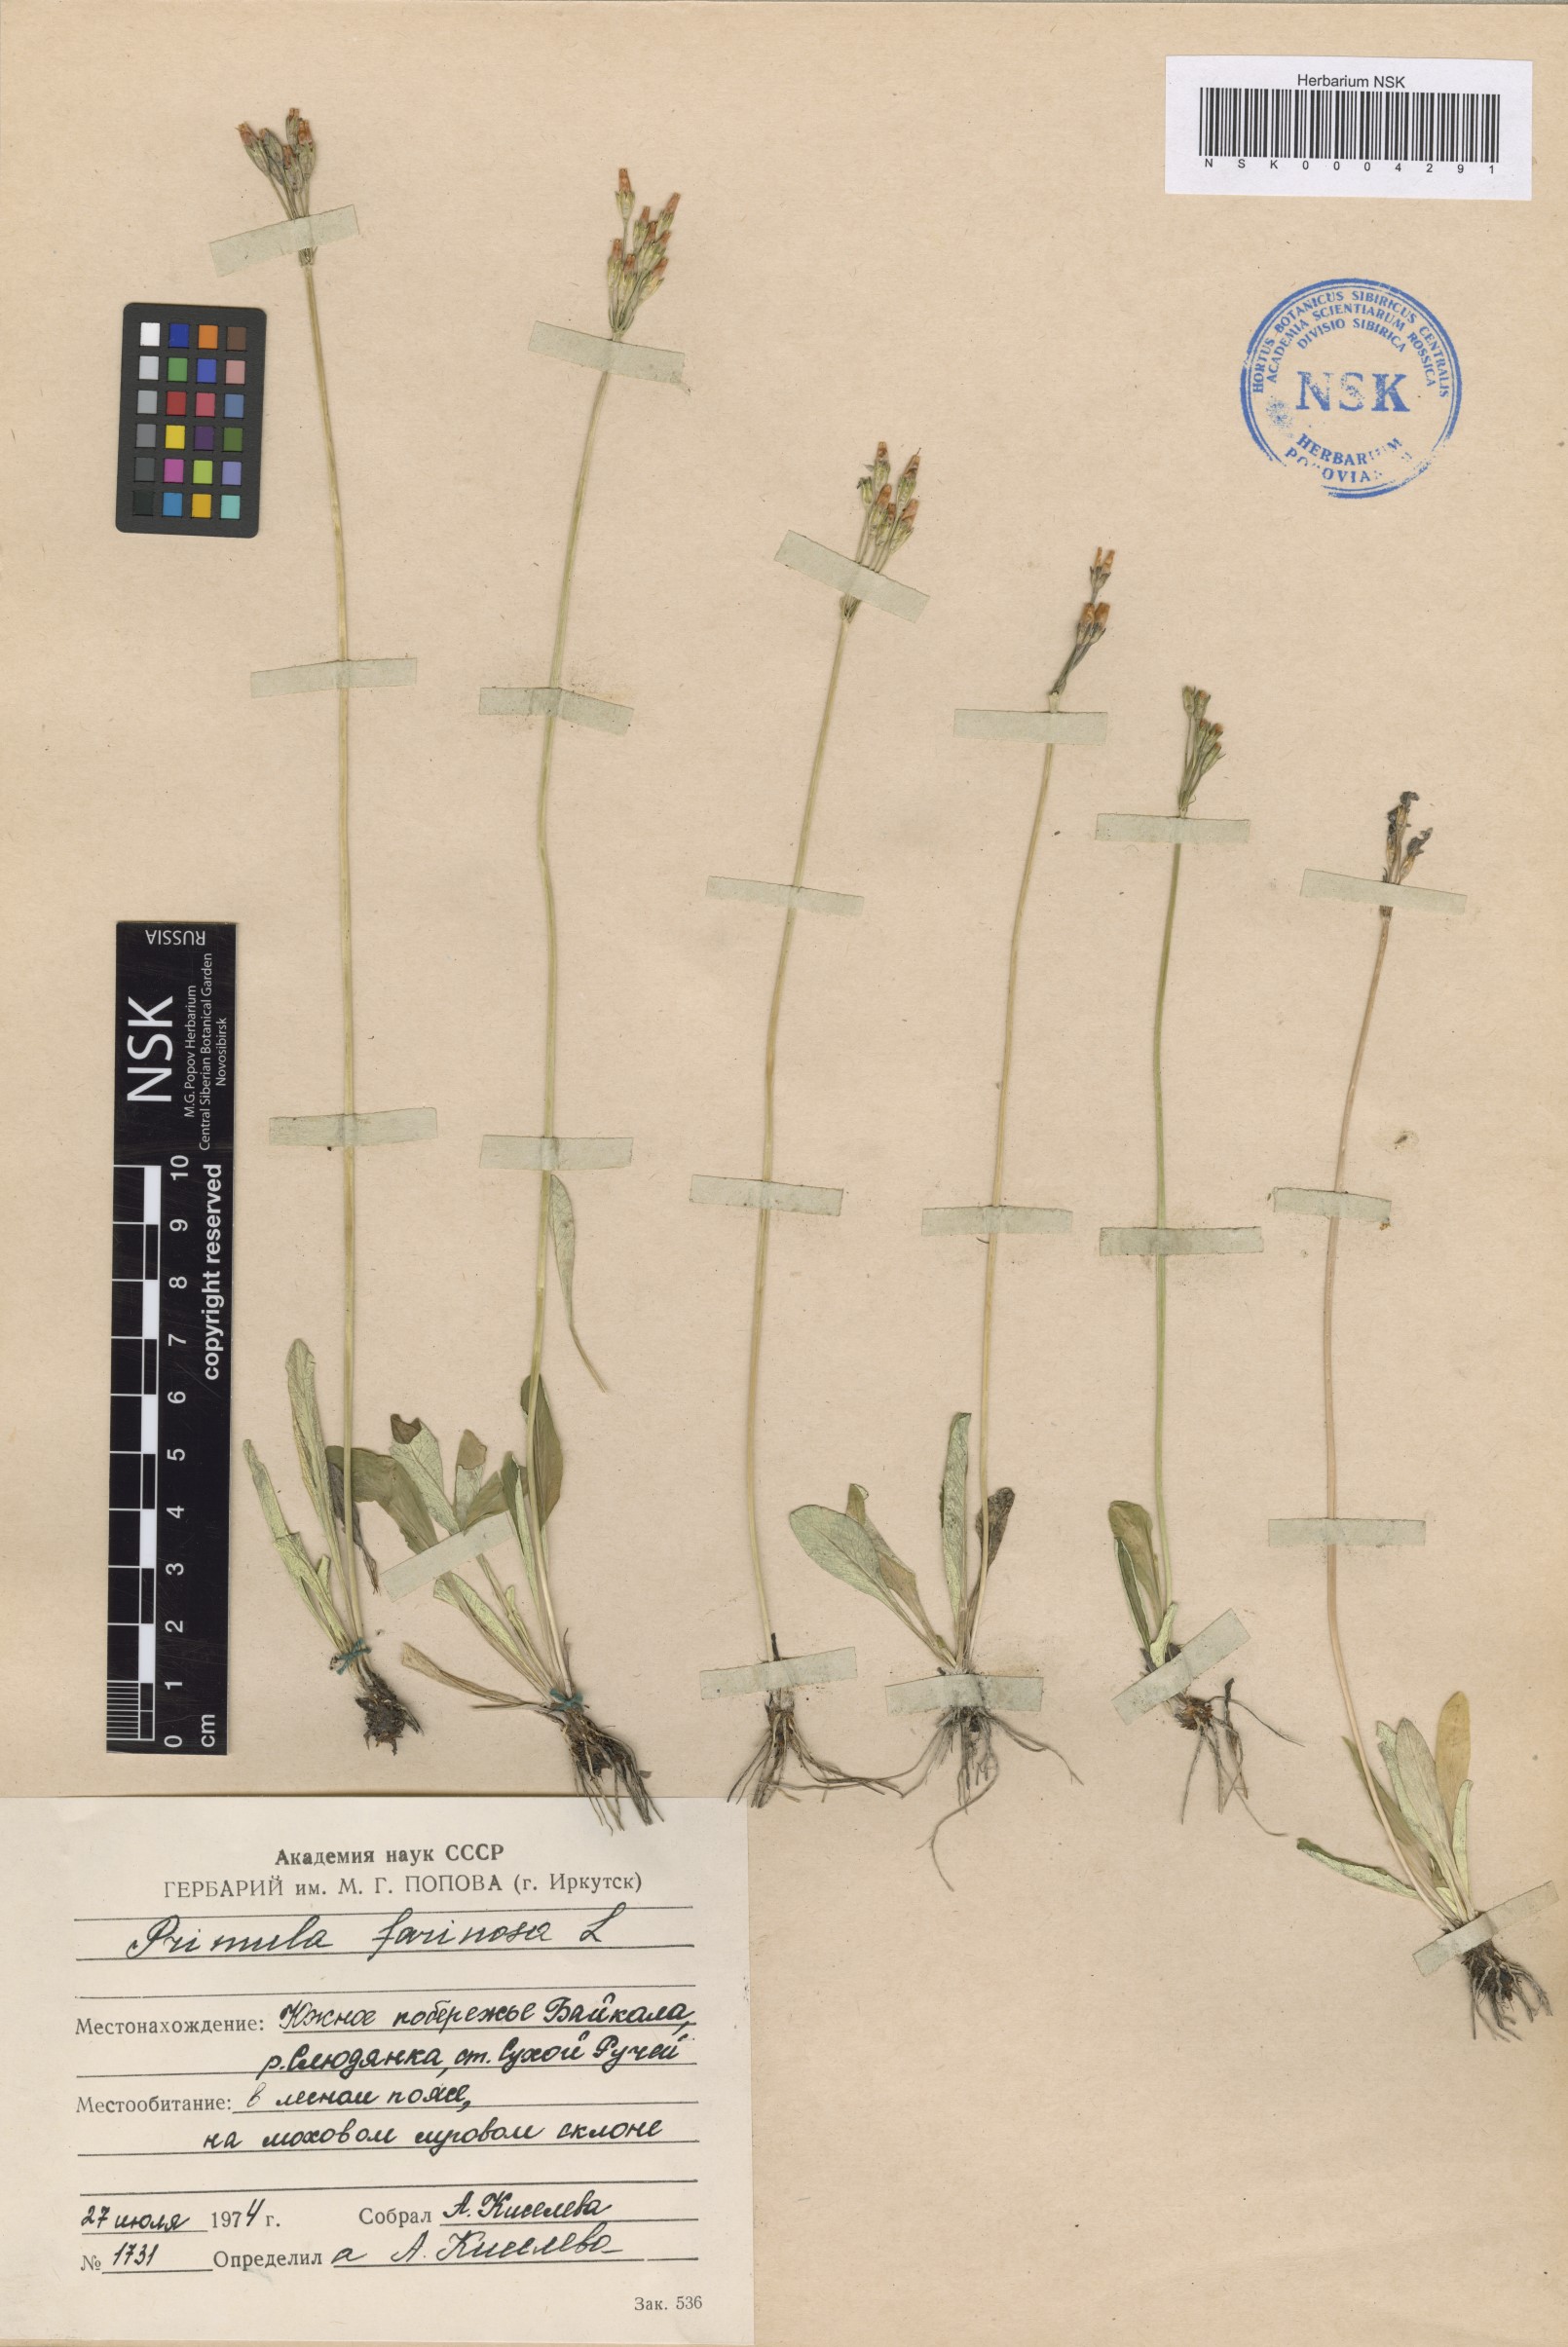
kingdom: Plantae
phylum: Tracheophyta
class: Magnoliopsida
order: Ericales
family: Primulaceae
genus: Primula
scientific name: Primula farinosa
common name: Bird's-eye primrose
